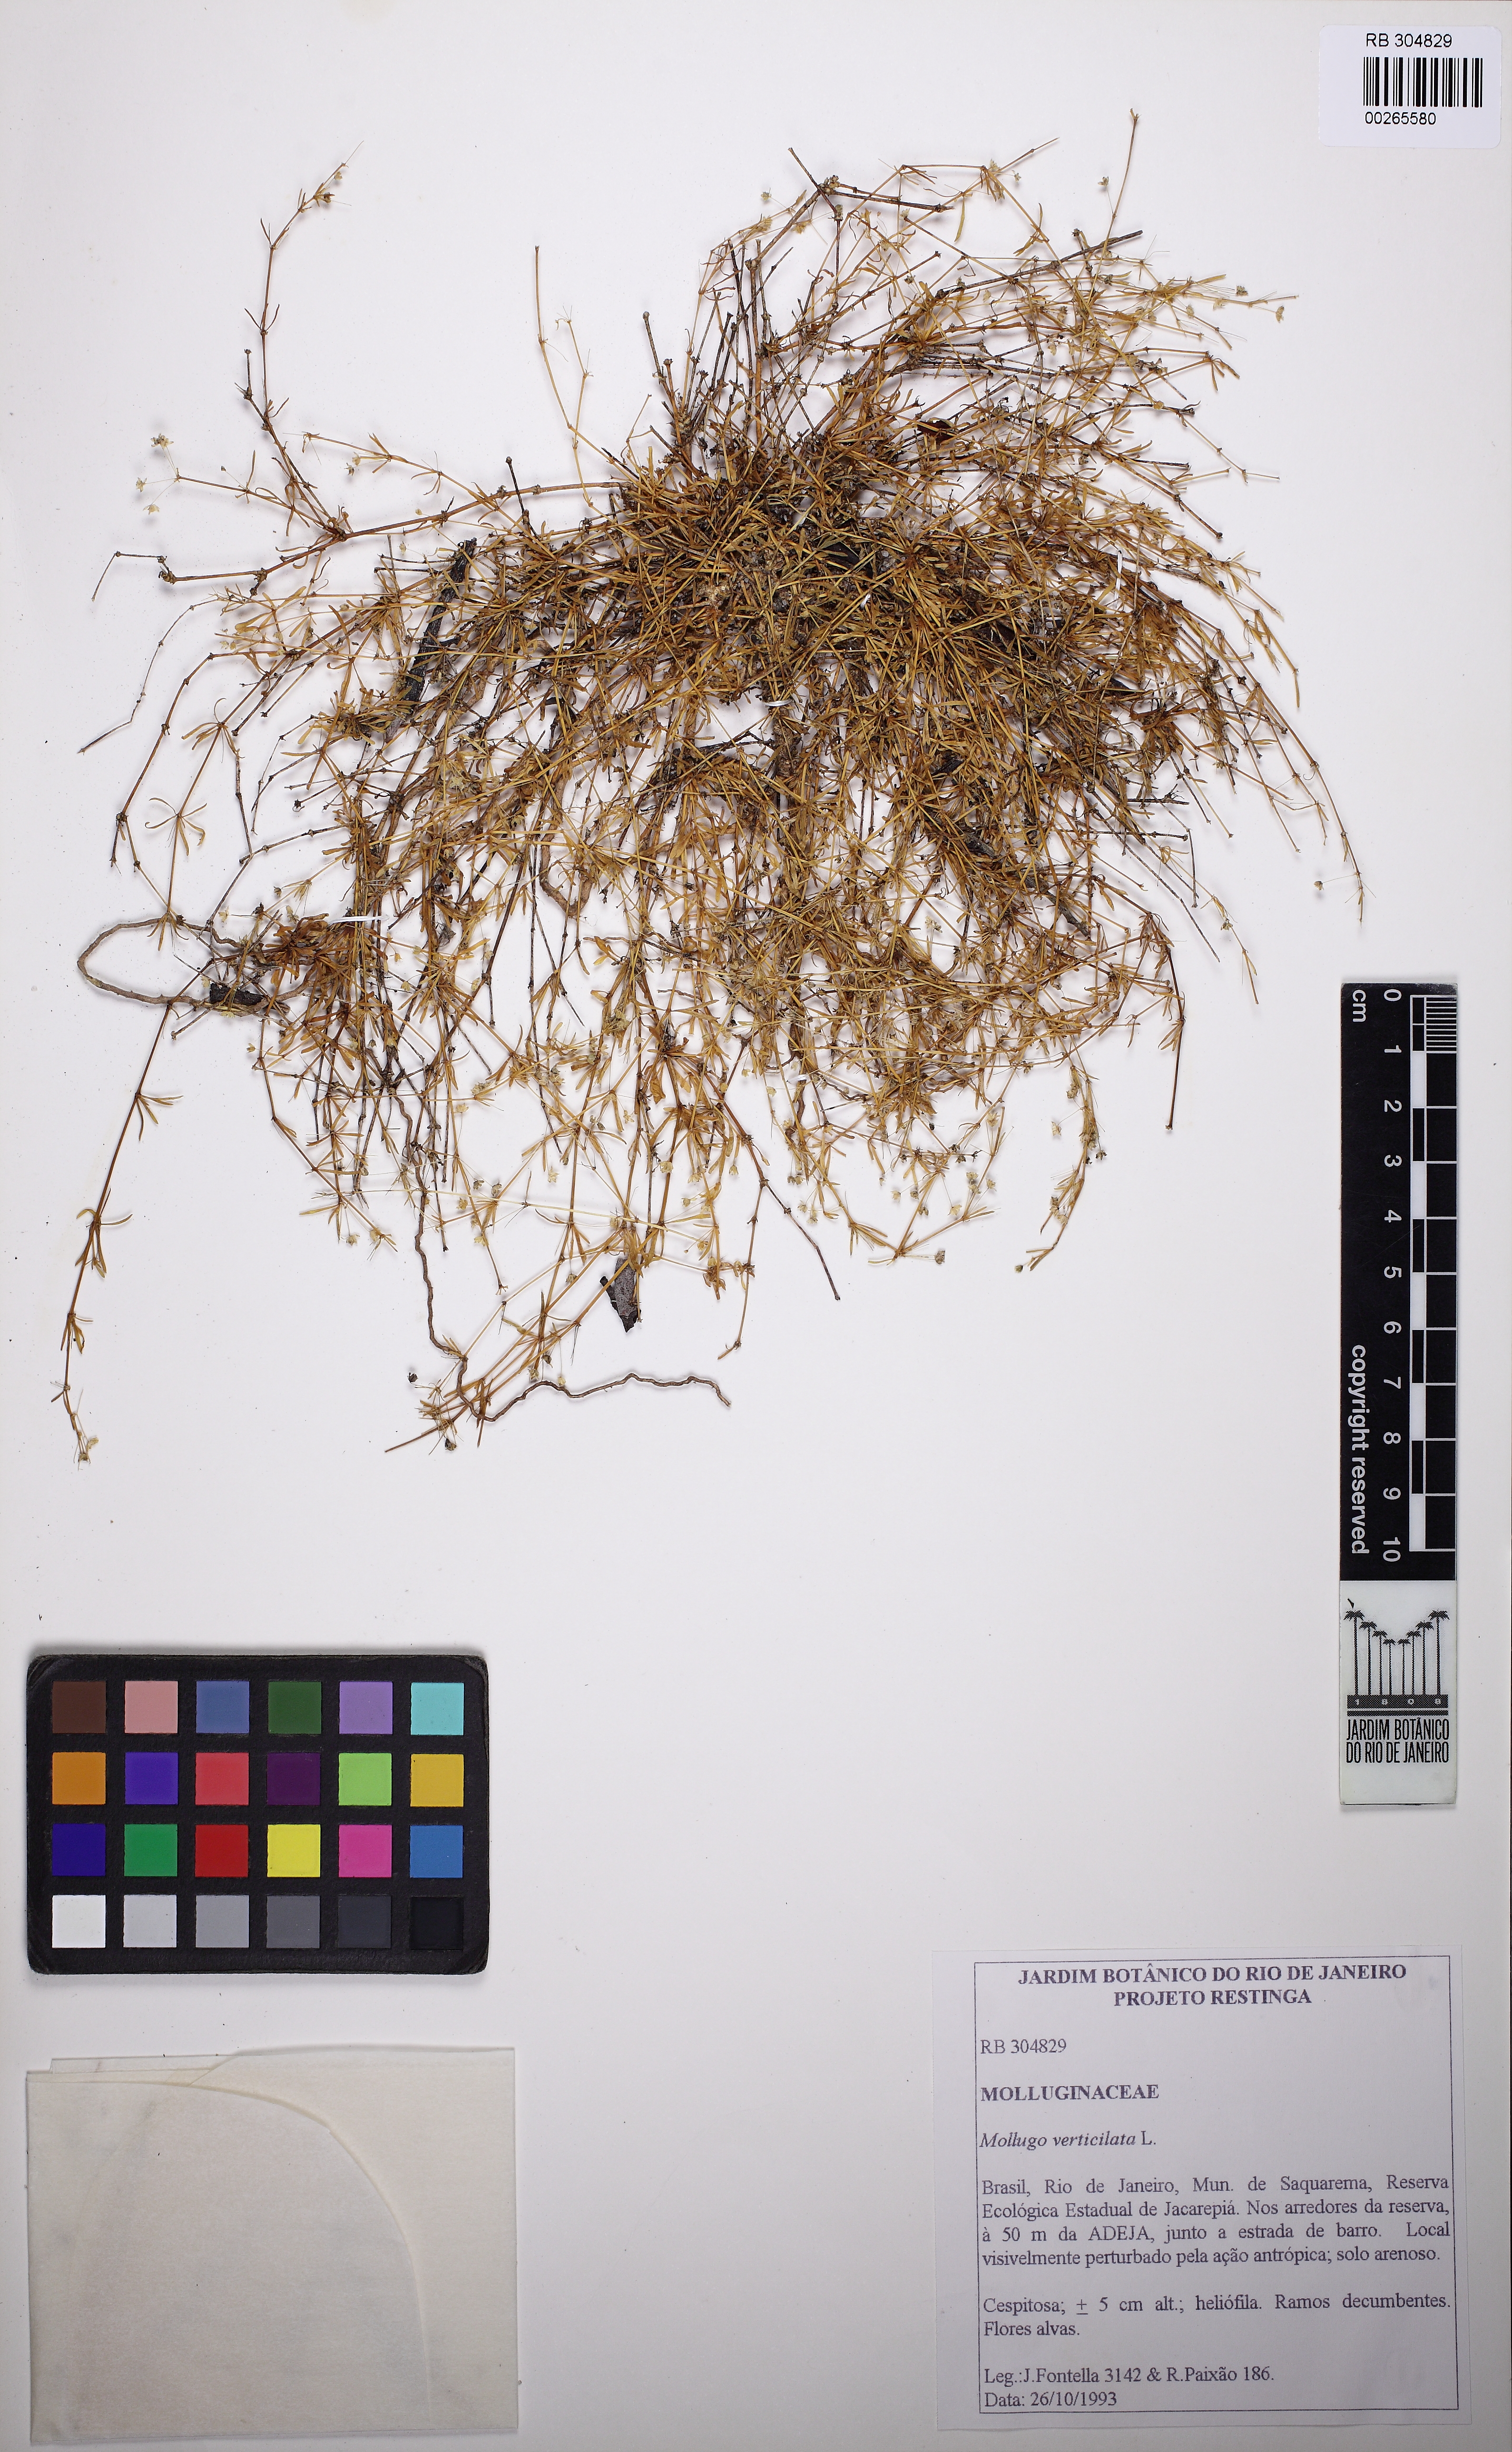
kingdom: Plantae
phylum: Tracheophyta
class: Magnoliopsida
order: Caryophyllales
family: Molluginaceae
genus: Mollugo
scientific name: Mollugo verticillata
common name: Green carpetweed
